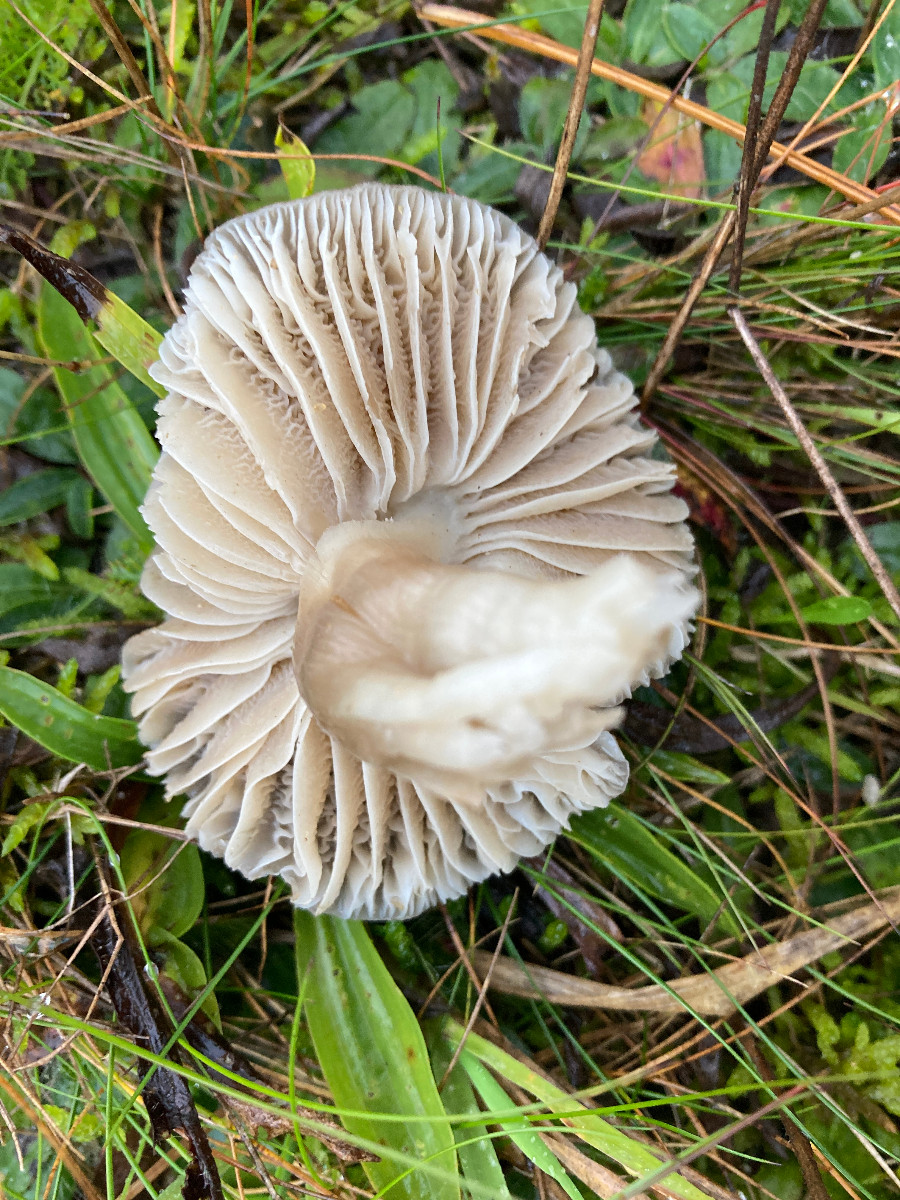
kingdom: Fungi
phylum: Basidiomycota
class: Agaricomycetes
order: Agaricales
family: Hygrophoraceae
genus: Neohygrocybe
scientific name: Neohygrocybe nitrata
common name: stinkende vokshat
